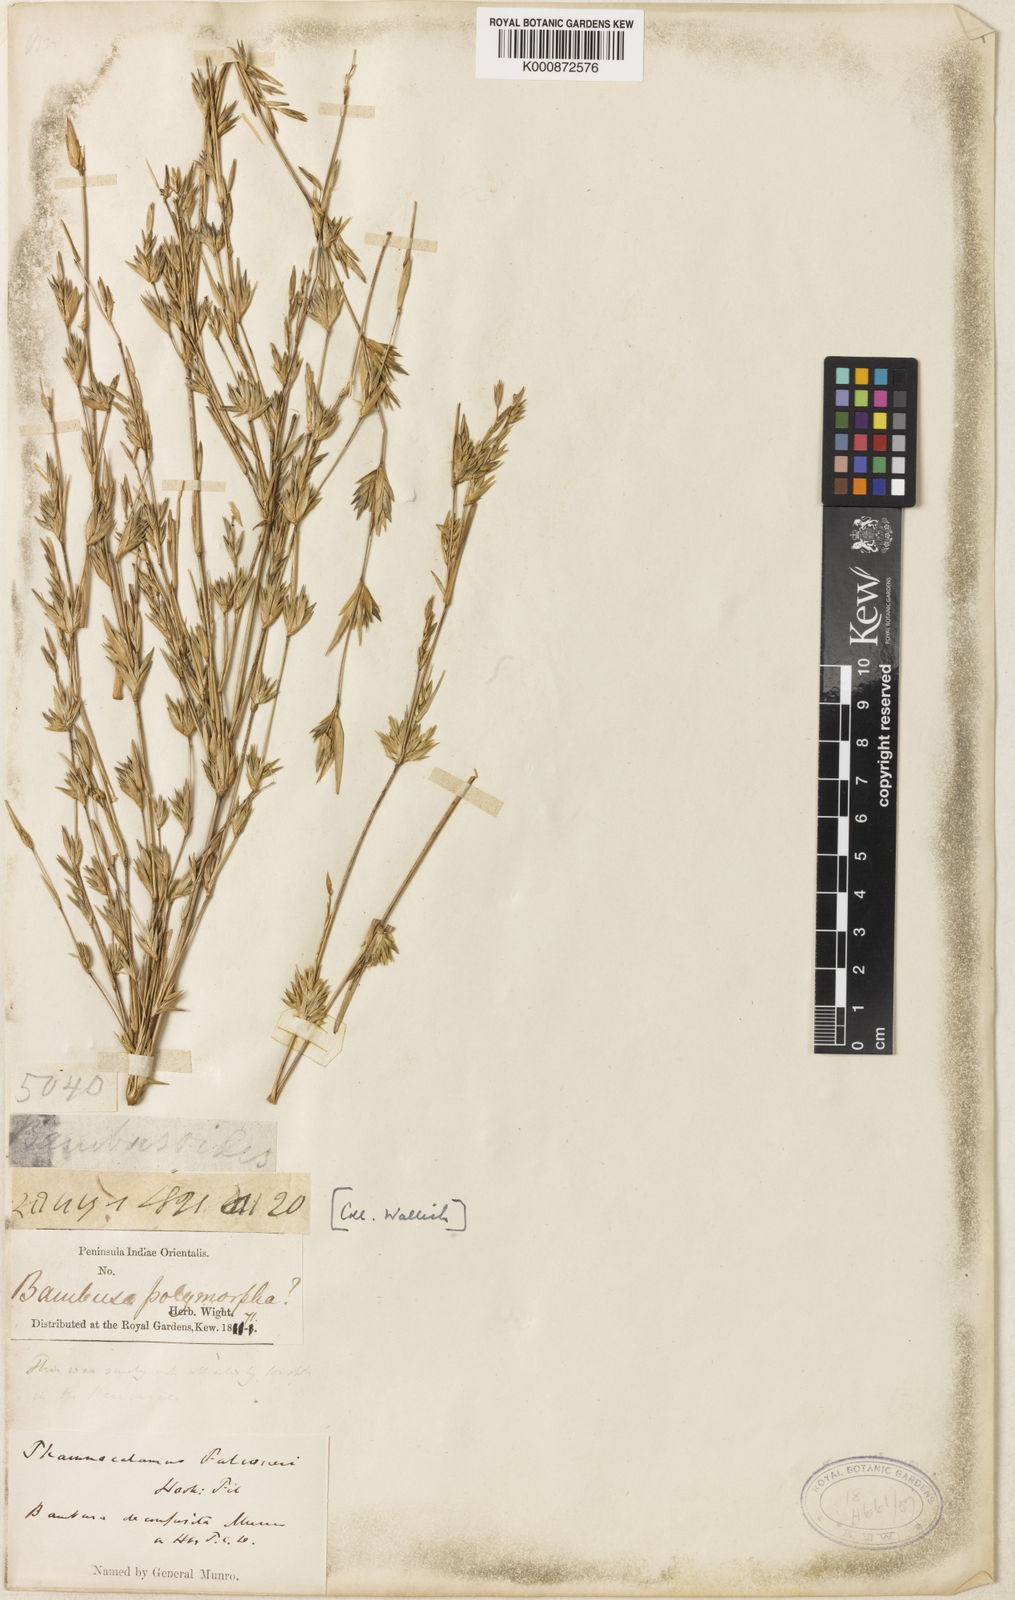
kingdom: Plantae
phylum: Tracheophyta
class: Liliopsida
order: Poales
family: Poaceae
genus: Himalayacalamus
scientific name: Himalayacalamus falconeri
